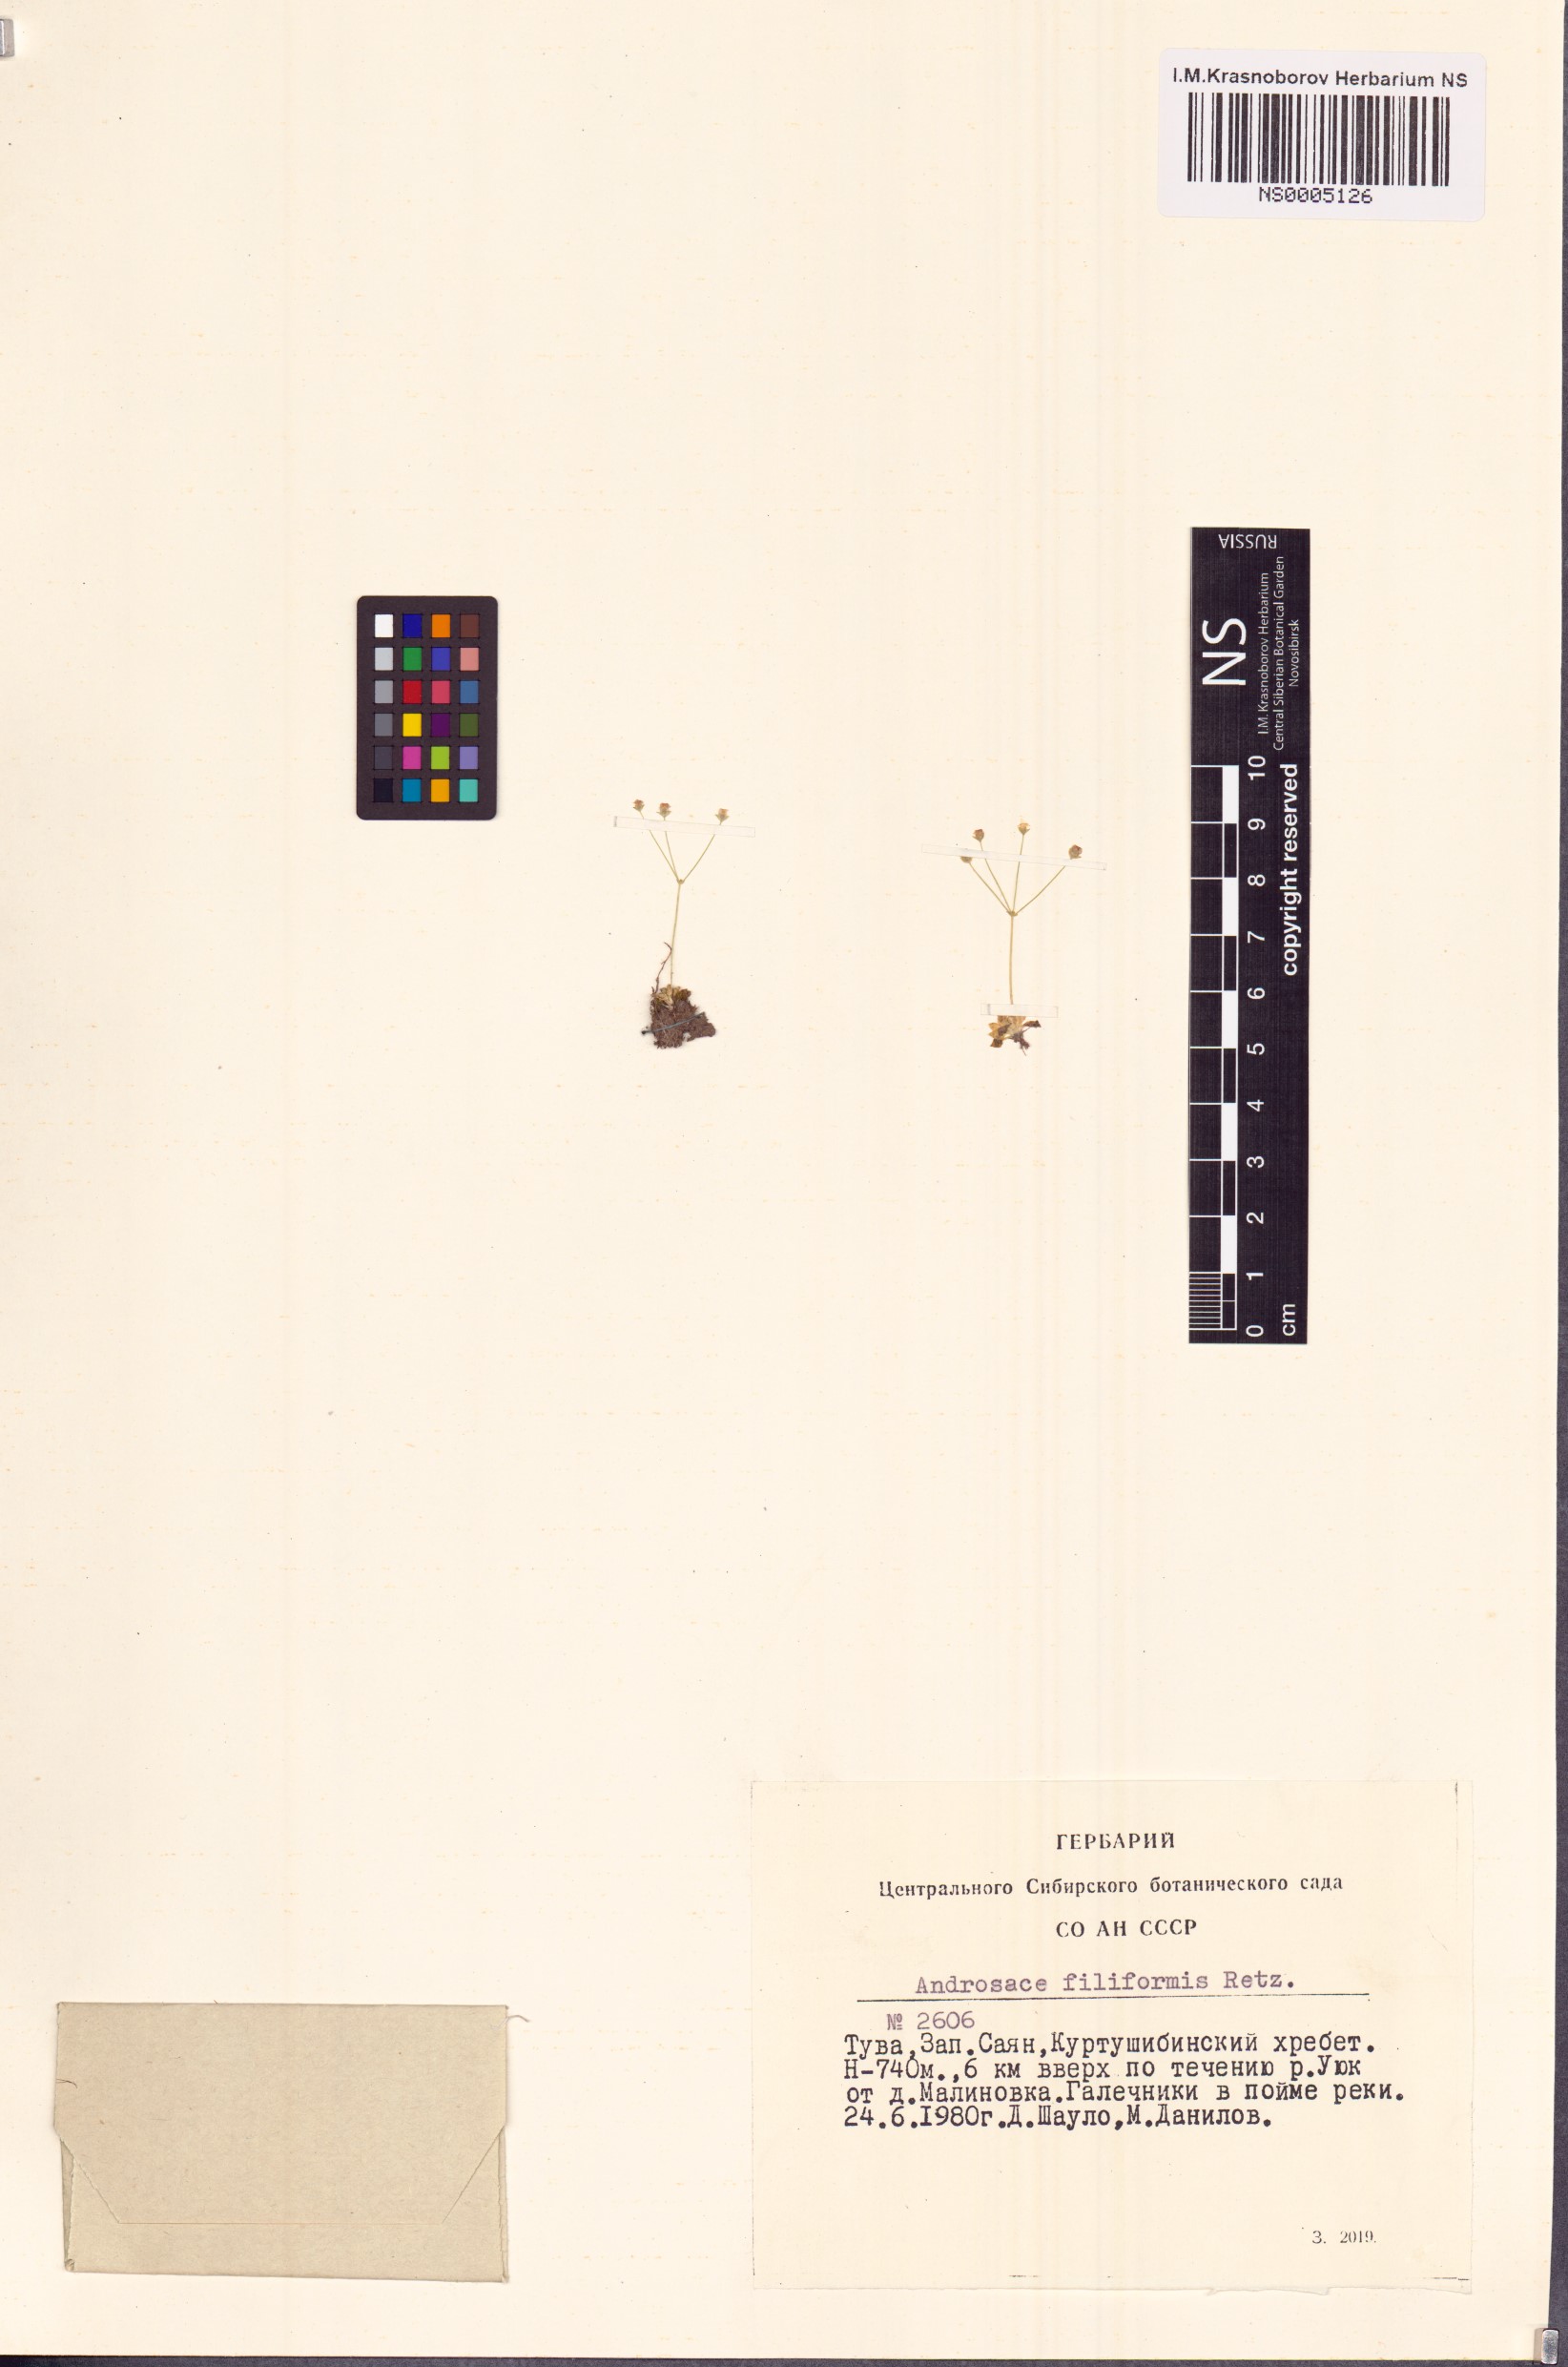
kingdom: Plantae
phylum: Tracheophyta
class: Magnoliopsida
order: Ericales
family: Primulaceae
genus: Androsace
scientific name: Androsace filiformis
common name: Filiform rock jasmine
